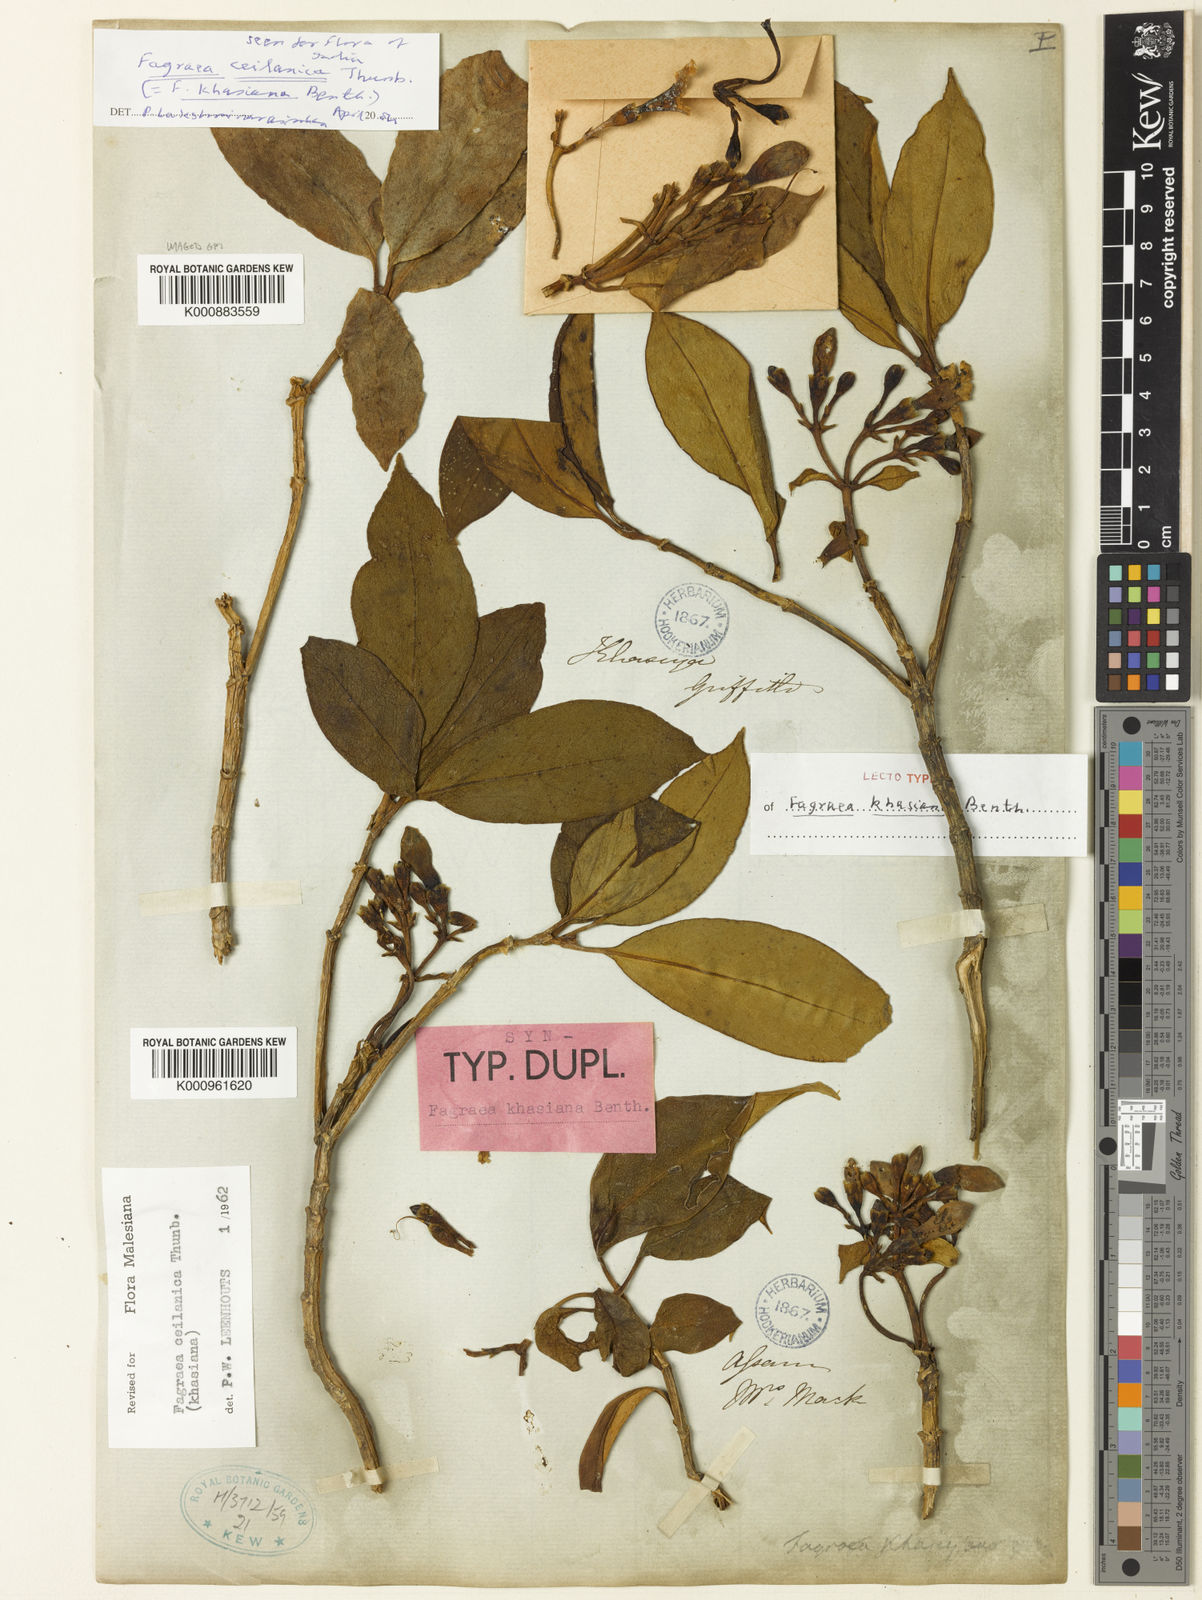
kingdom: Plantae
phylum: Tracheophyta
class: Magnoliopsida
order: Gentianales
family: Gentianaceae
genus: Fagraea
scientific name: Fagraea ceilanica
